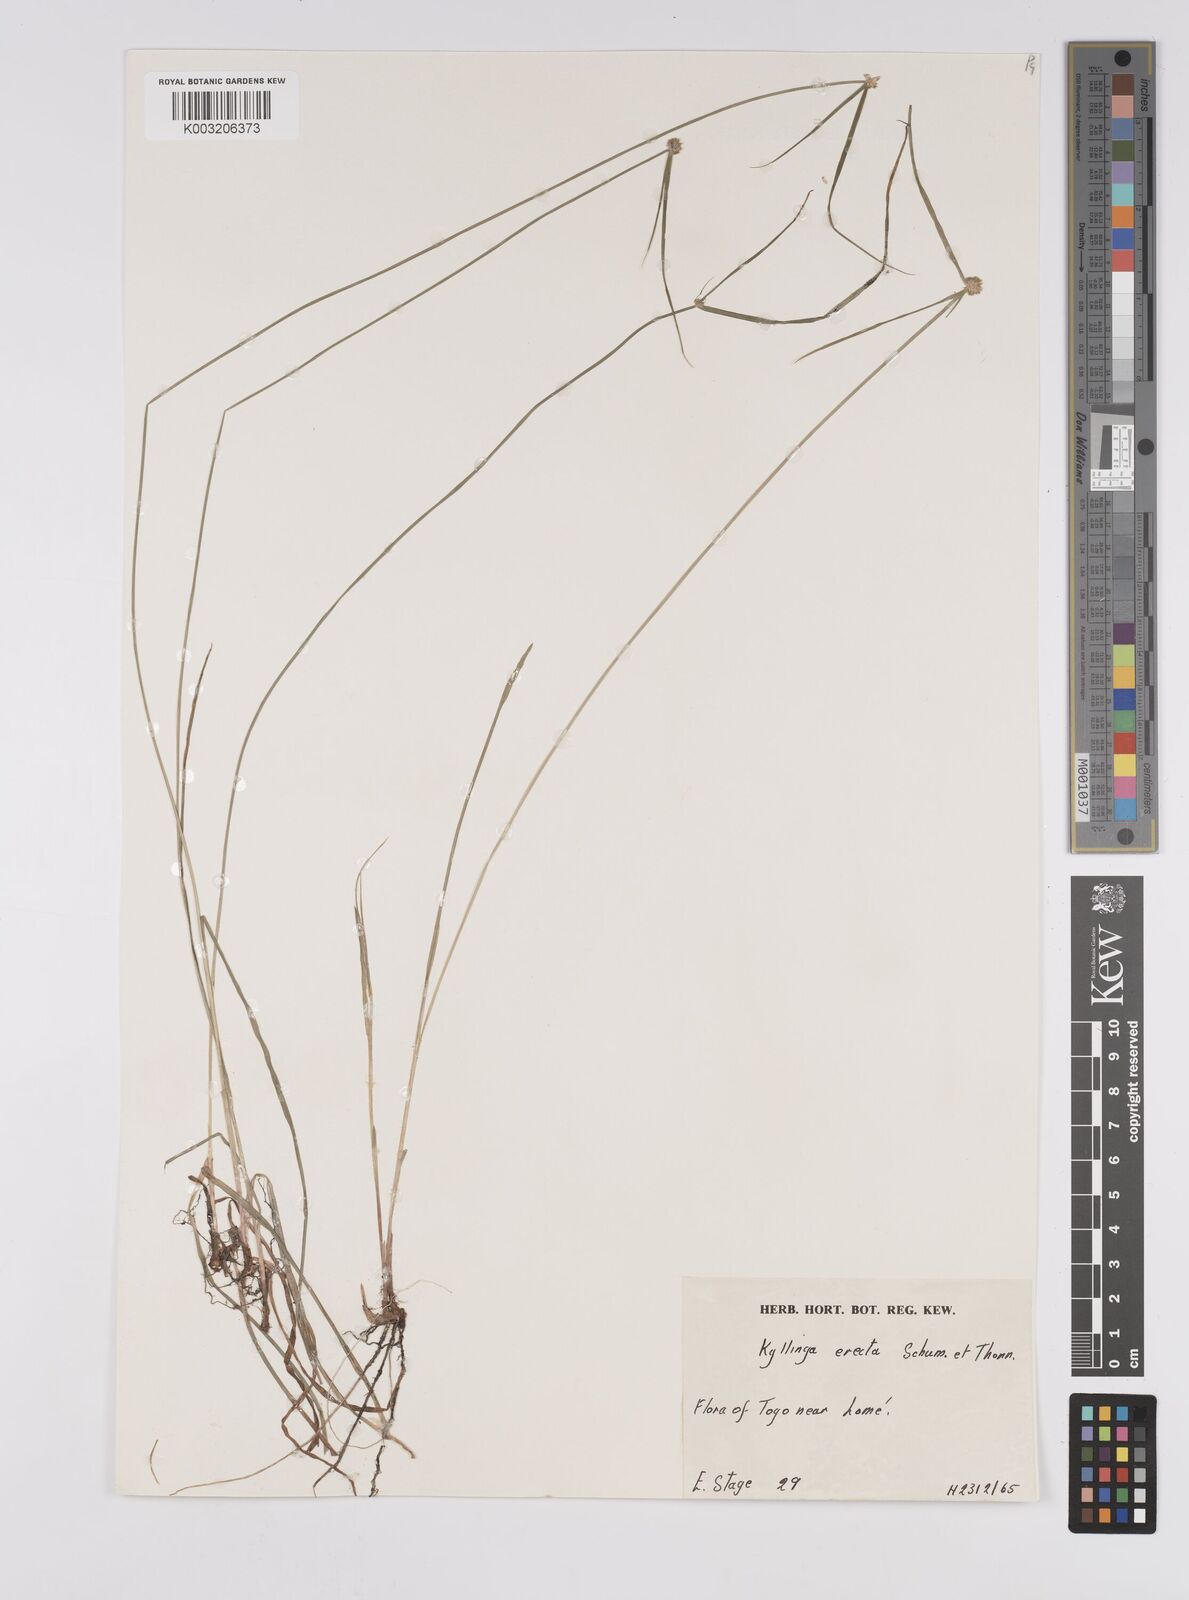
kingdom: Plantae
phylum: Tracheophyta
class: Liliopsida
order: Poales
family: Cyperaceae
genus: Cyperus
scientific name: Cyperus erectus
